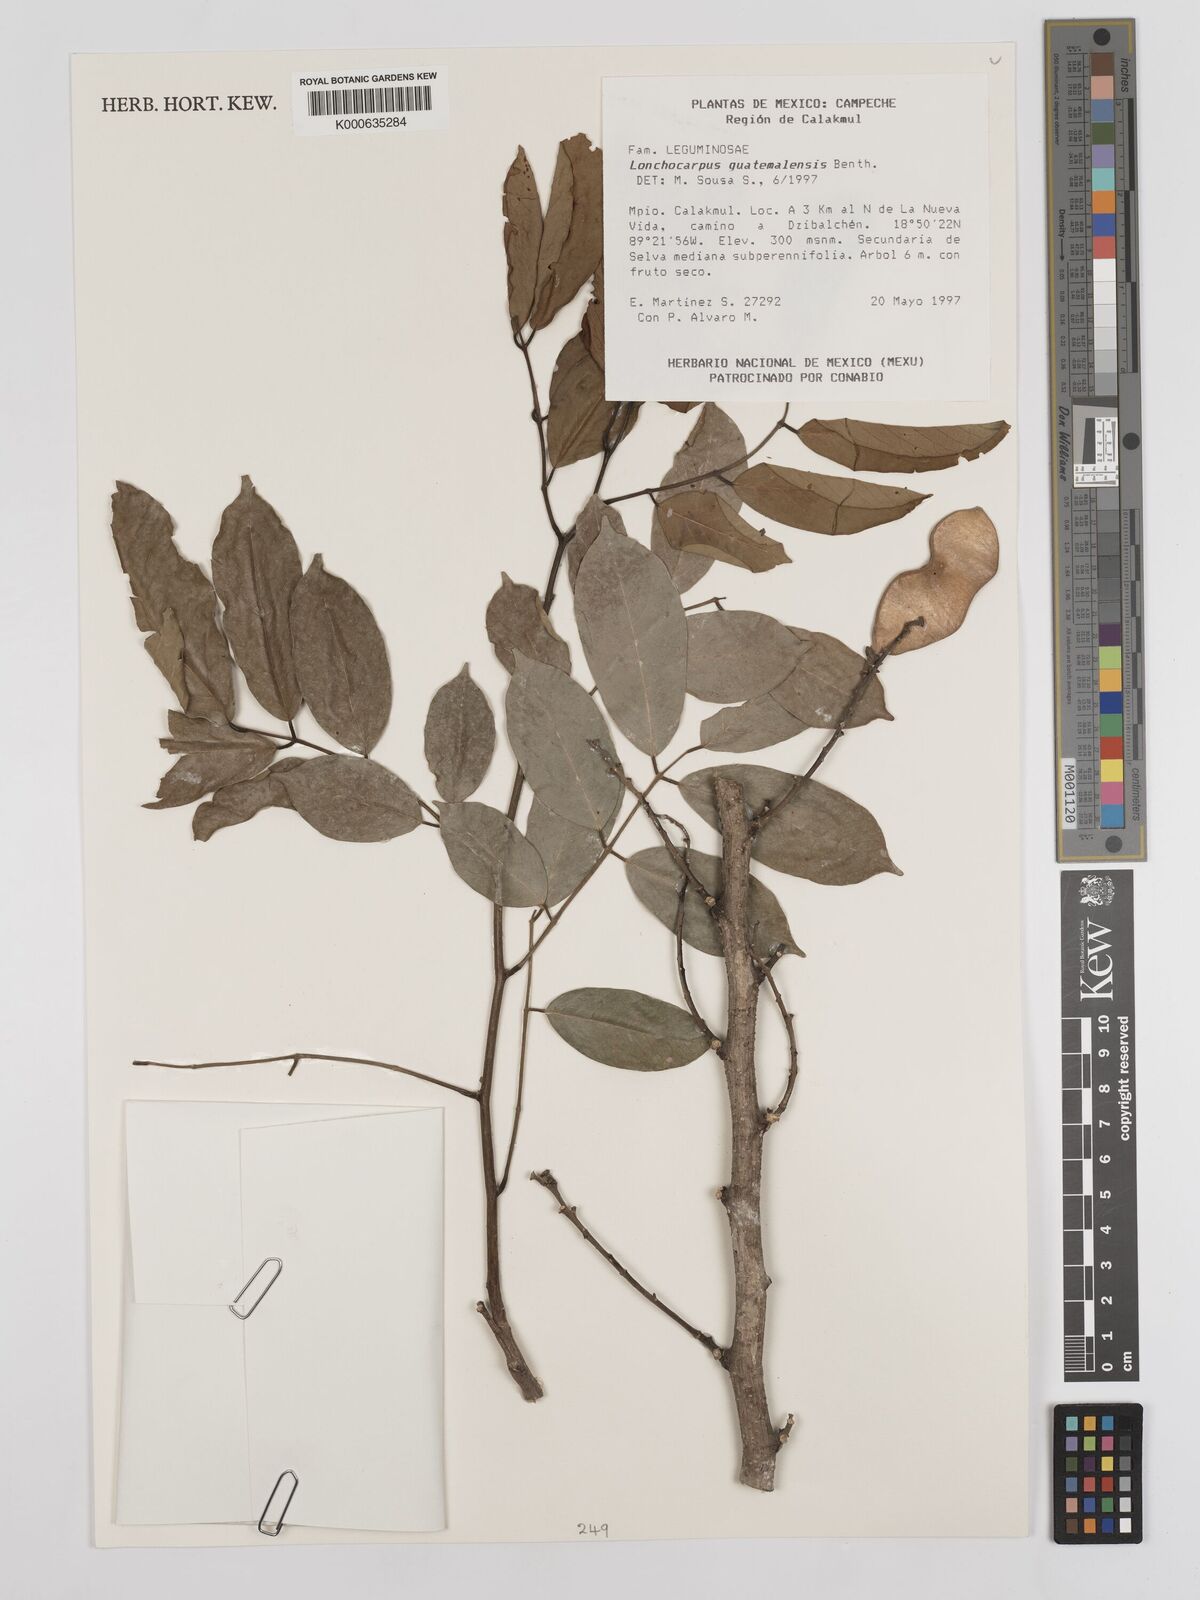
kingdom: Plantae
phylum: Tracheophyta
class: Magnoliopsida
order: Fabales
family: Fabaceae
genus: Lonchocarpus
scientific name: Lonchocarpus guatemalensis
